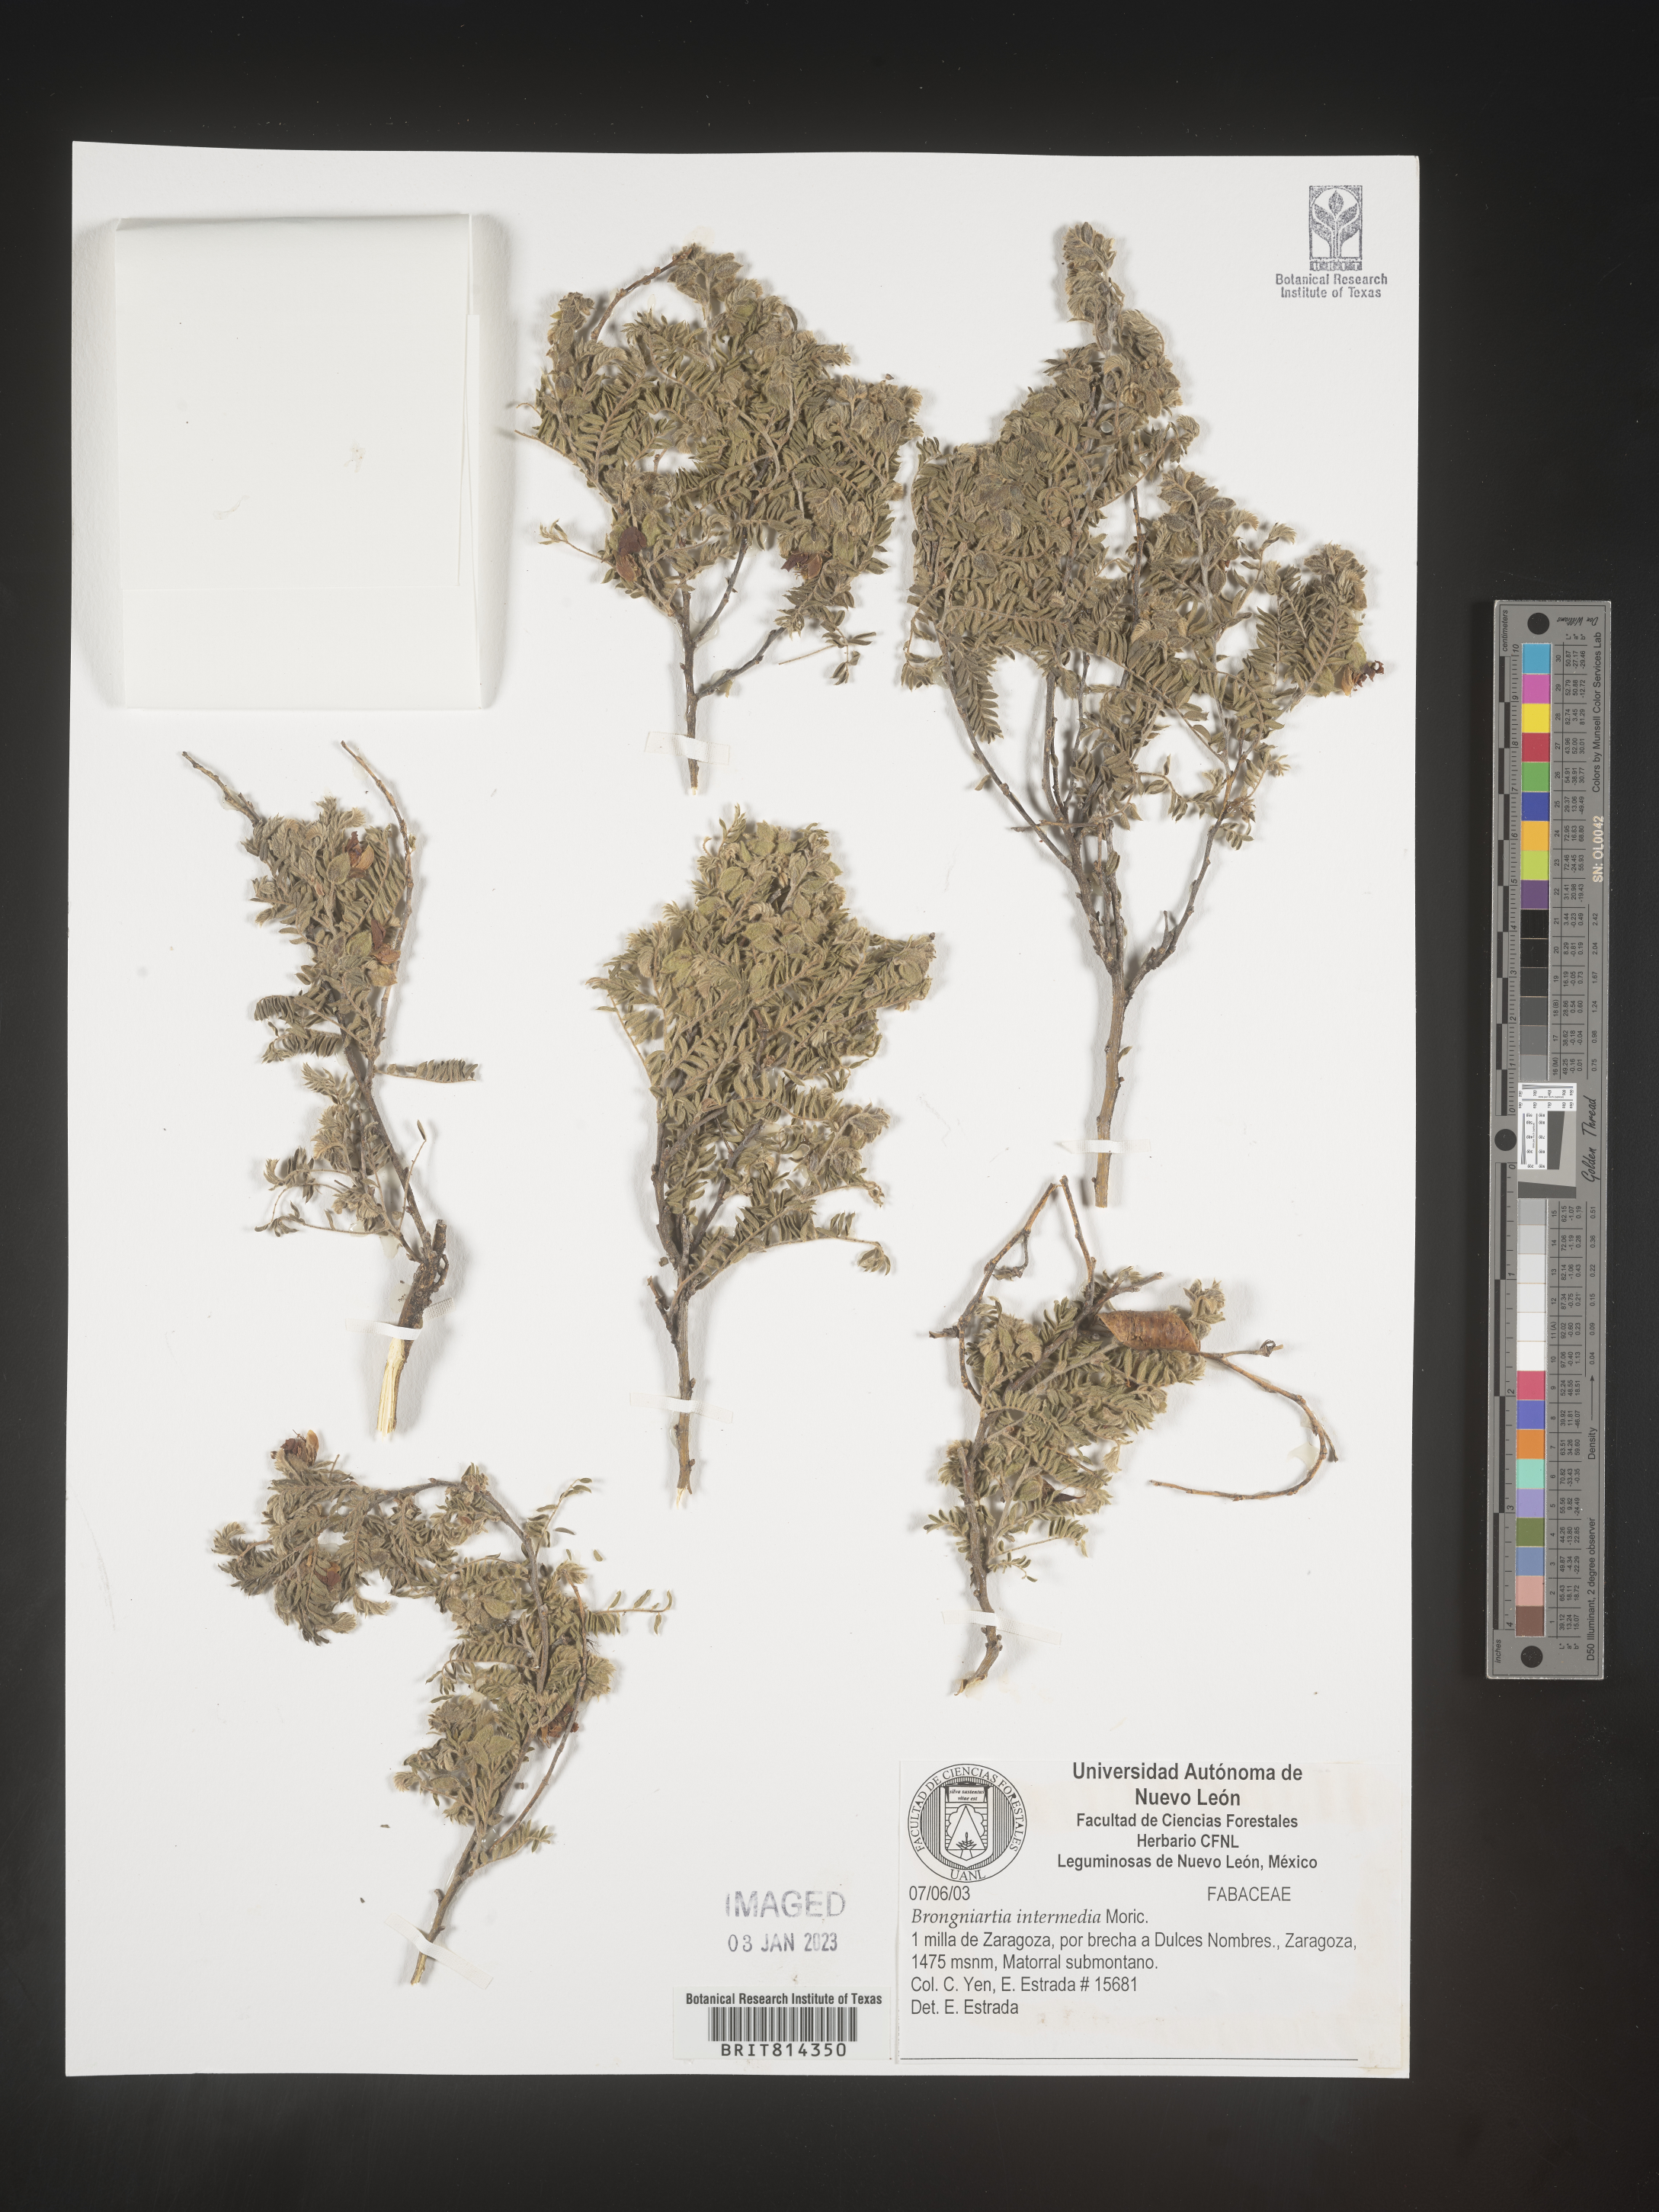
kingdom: Plantae
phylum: Tracheophyta
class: Magnoliopsida
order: Fabales
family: Fabaceae
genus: Brongniartia
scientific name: Brongniartia
